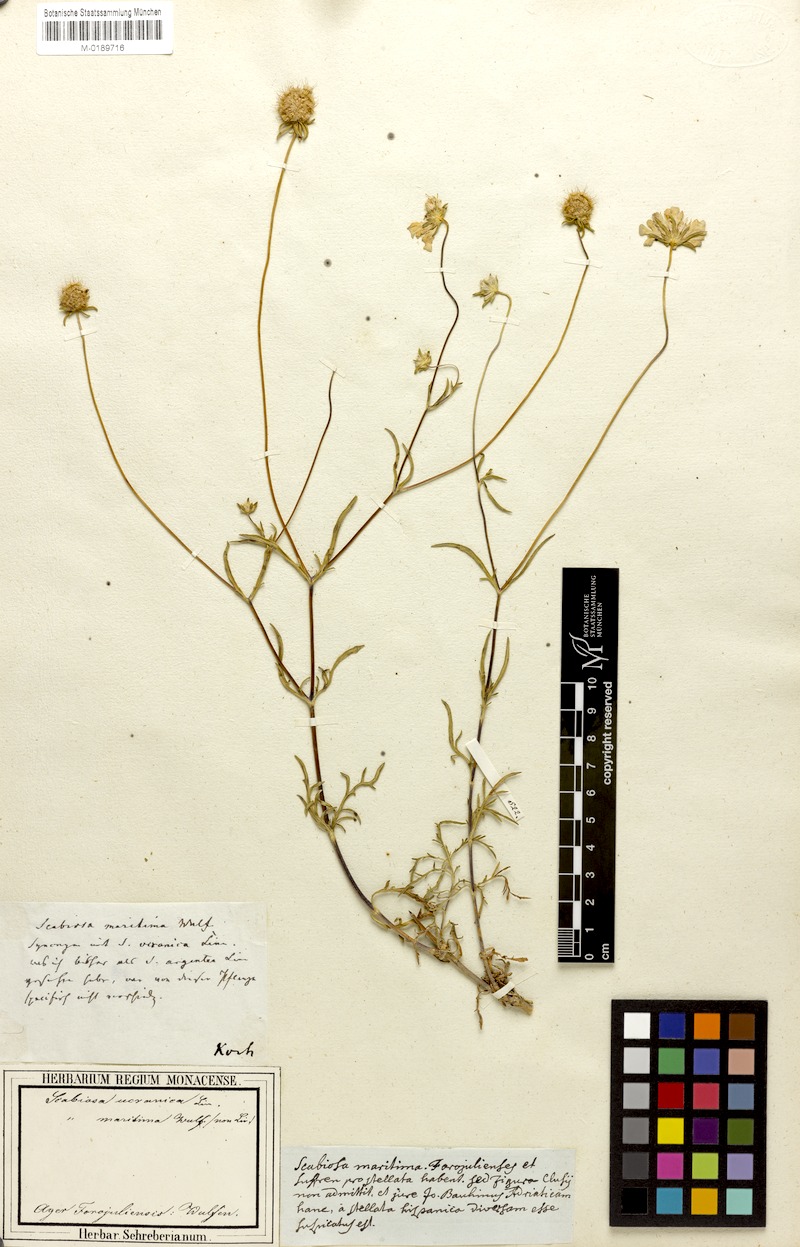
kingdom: Plantae
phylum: Tracheophyta
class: Magnoliopsida
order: Dipsacales
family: Caprifoliaceae
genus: Lomelosia
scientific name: Lomelosia argentea
